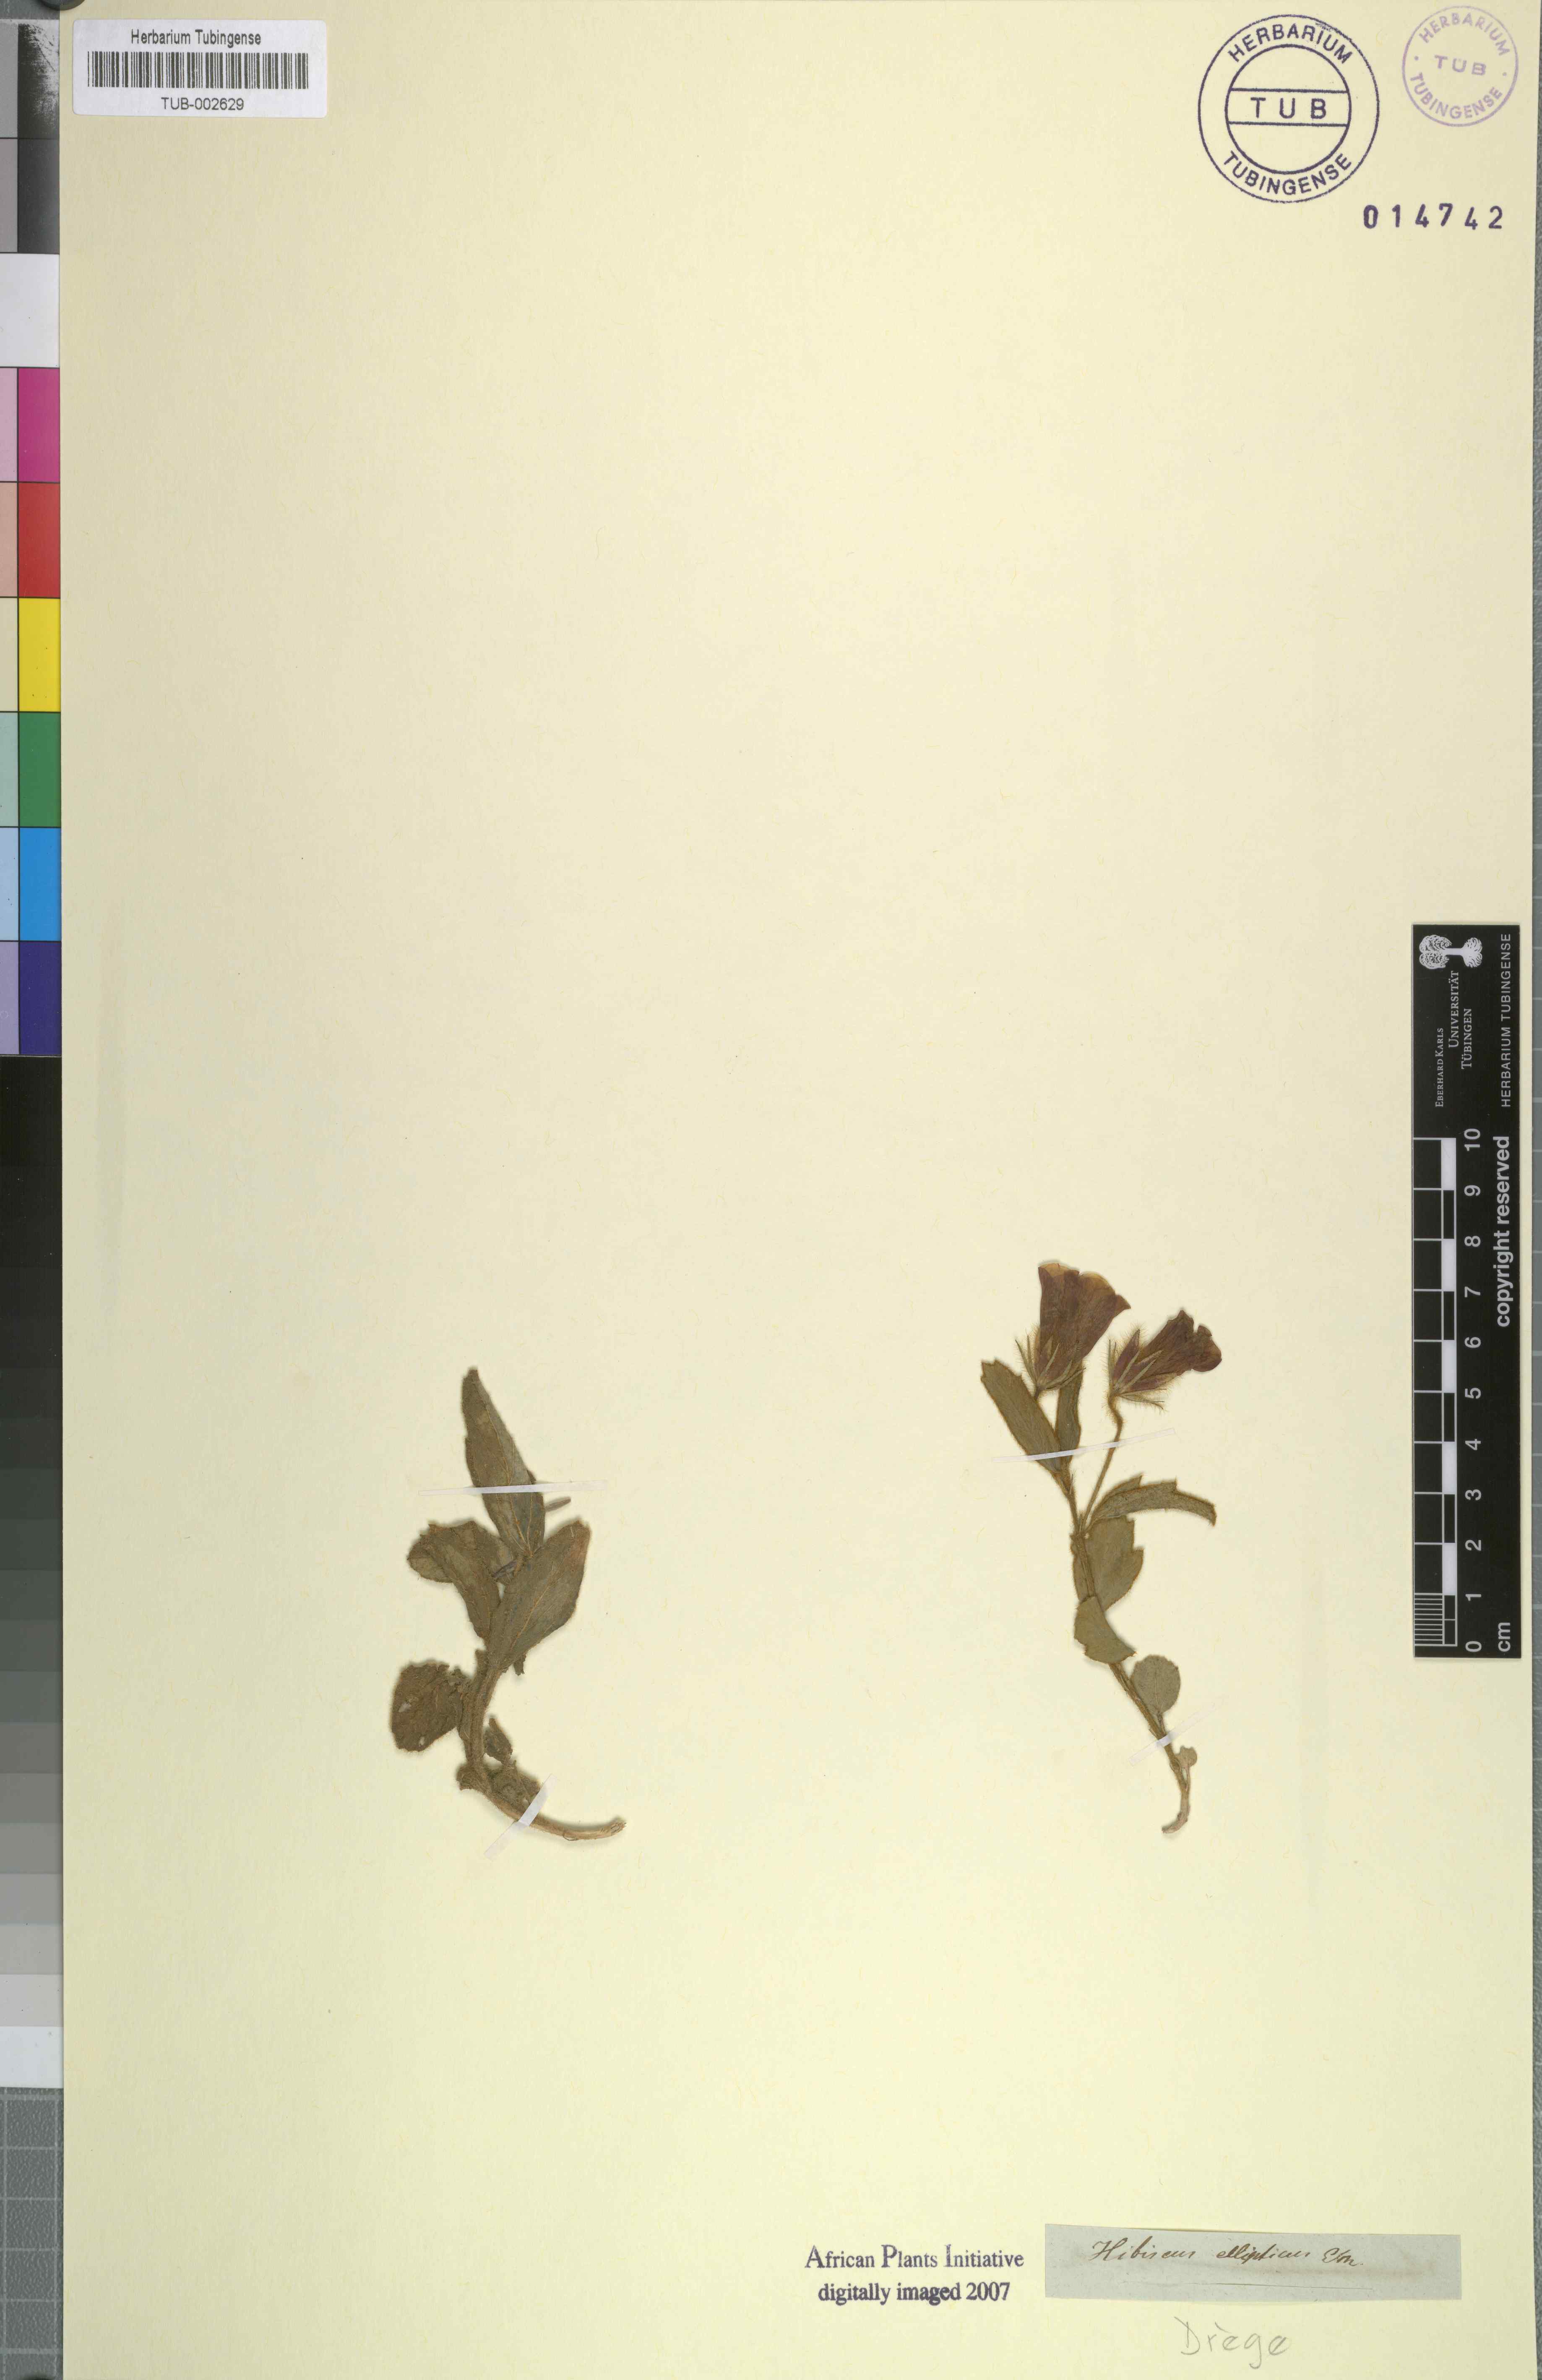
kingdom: Plantae
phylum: Tracheophyta
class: Magnoliopsida
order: Malvales
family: Malvaceae
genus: Hibiscus
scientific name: Hibiscus aethiopicus
